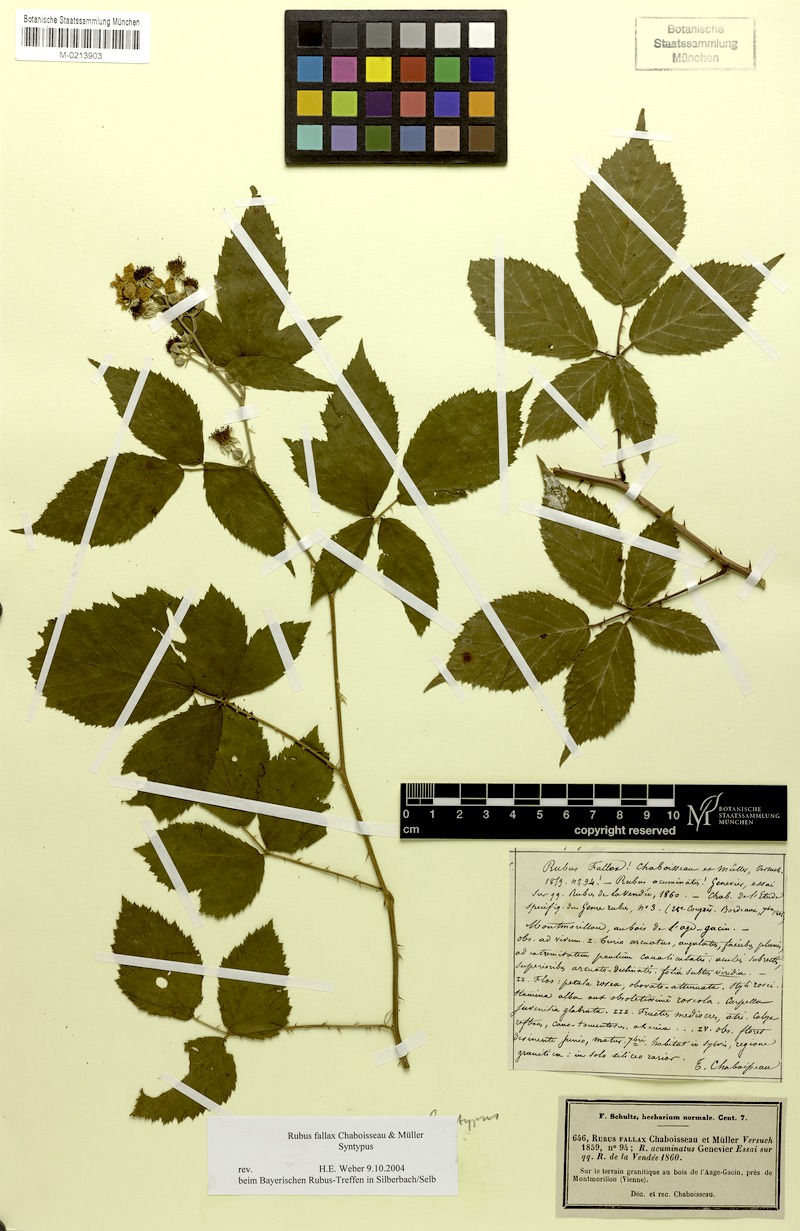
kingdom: Plantae
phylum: Tracheophyta
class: Magnoliopsida
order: Rosales
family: Rosaceae
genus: Rubus
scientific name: Rubus questieri
